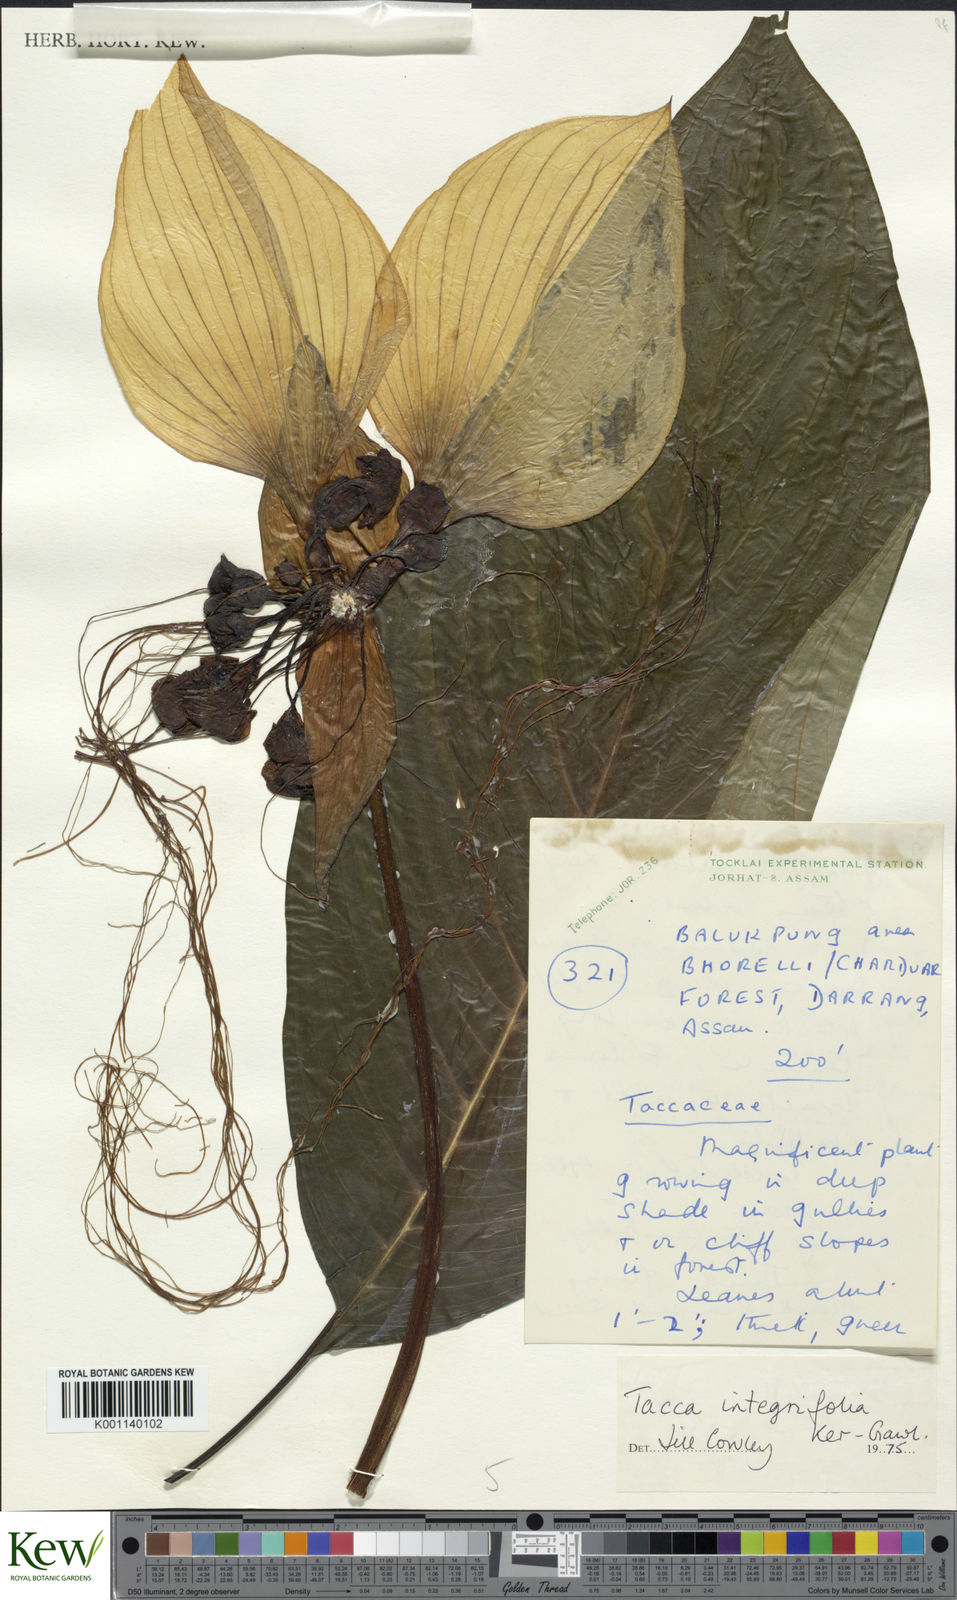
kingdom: Plantae
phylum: Tracheophyta
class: Liliopsida
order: Dioscoreales
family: Dioscoreaceae
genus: Tacca
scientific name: Tacca integrifolia
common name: Batplant
